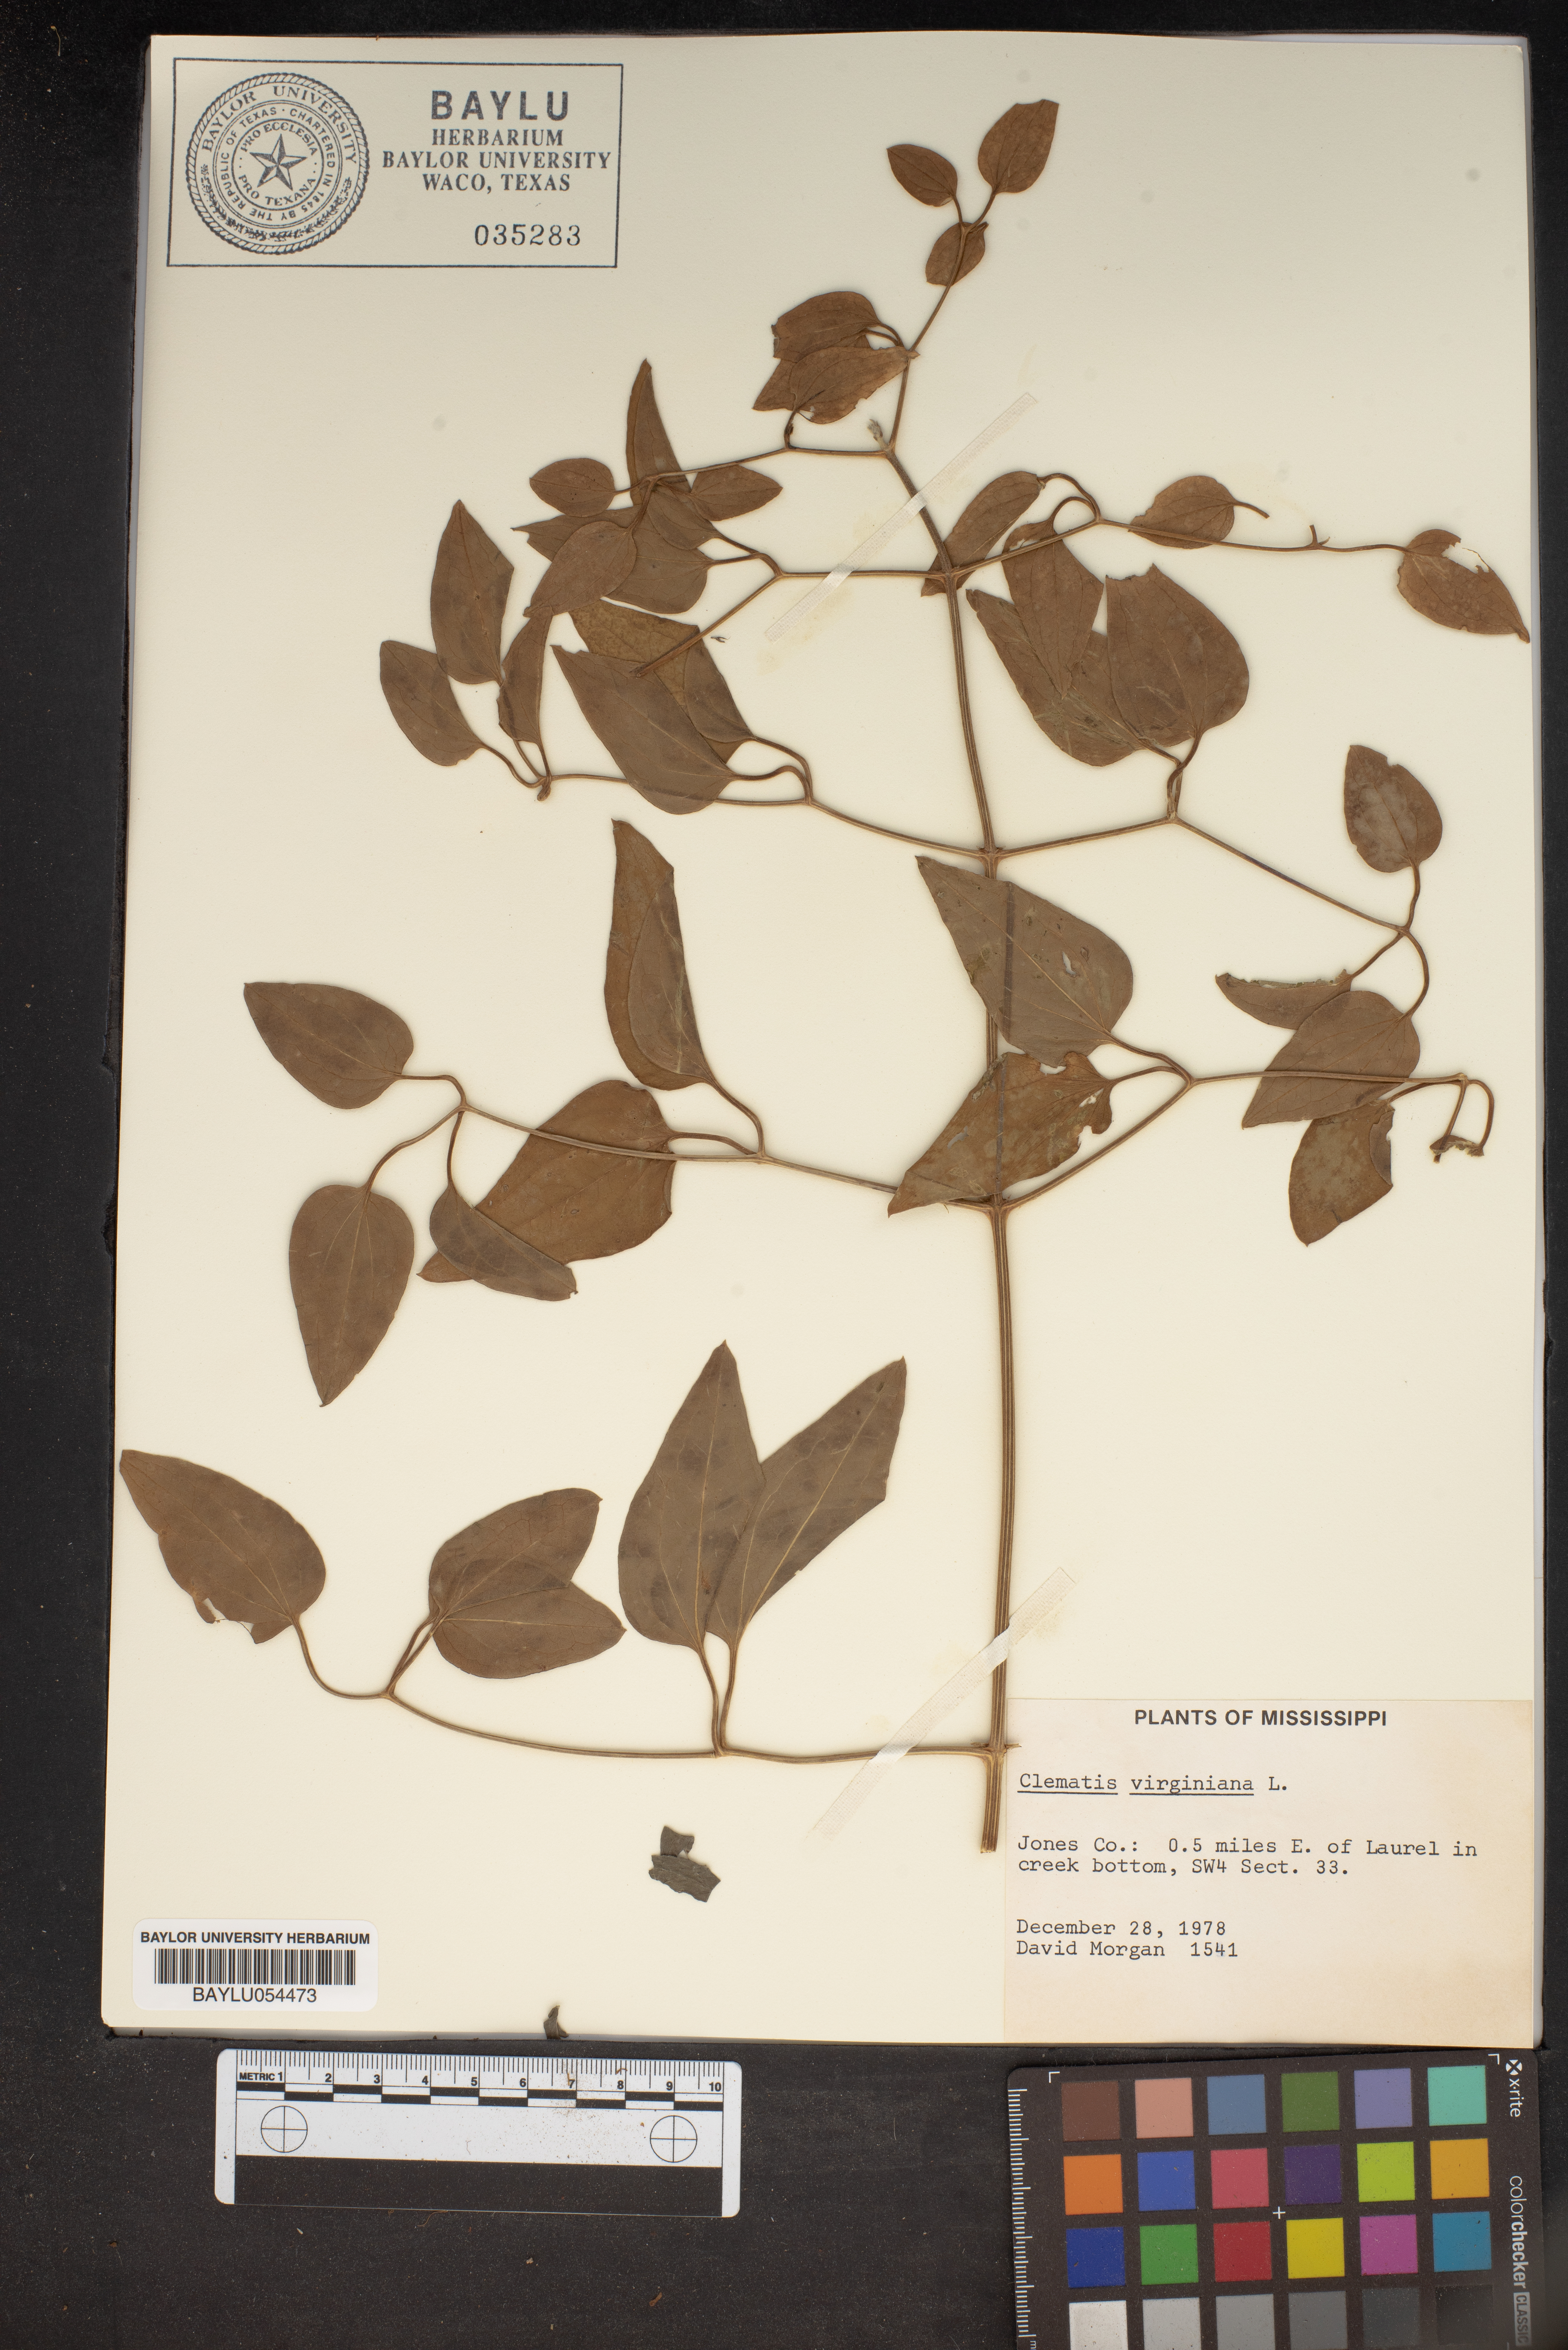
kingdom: Plantae
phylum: Tracheophyta
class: Magnoliopsida
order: Ranunculales
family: Ranunculaceae
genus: Clematis
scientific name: Clematis virginiana
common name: Virgin's-bower
